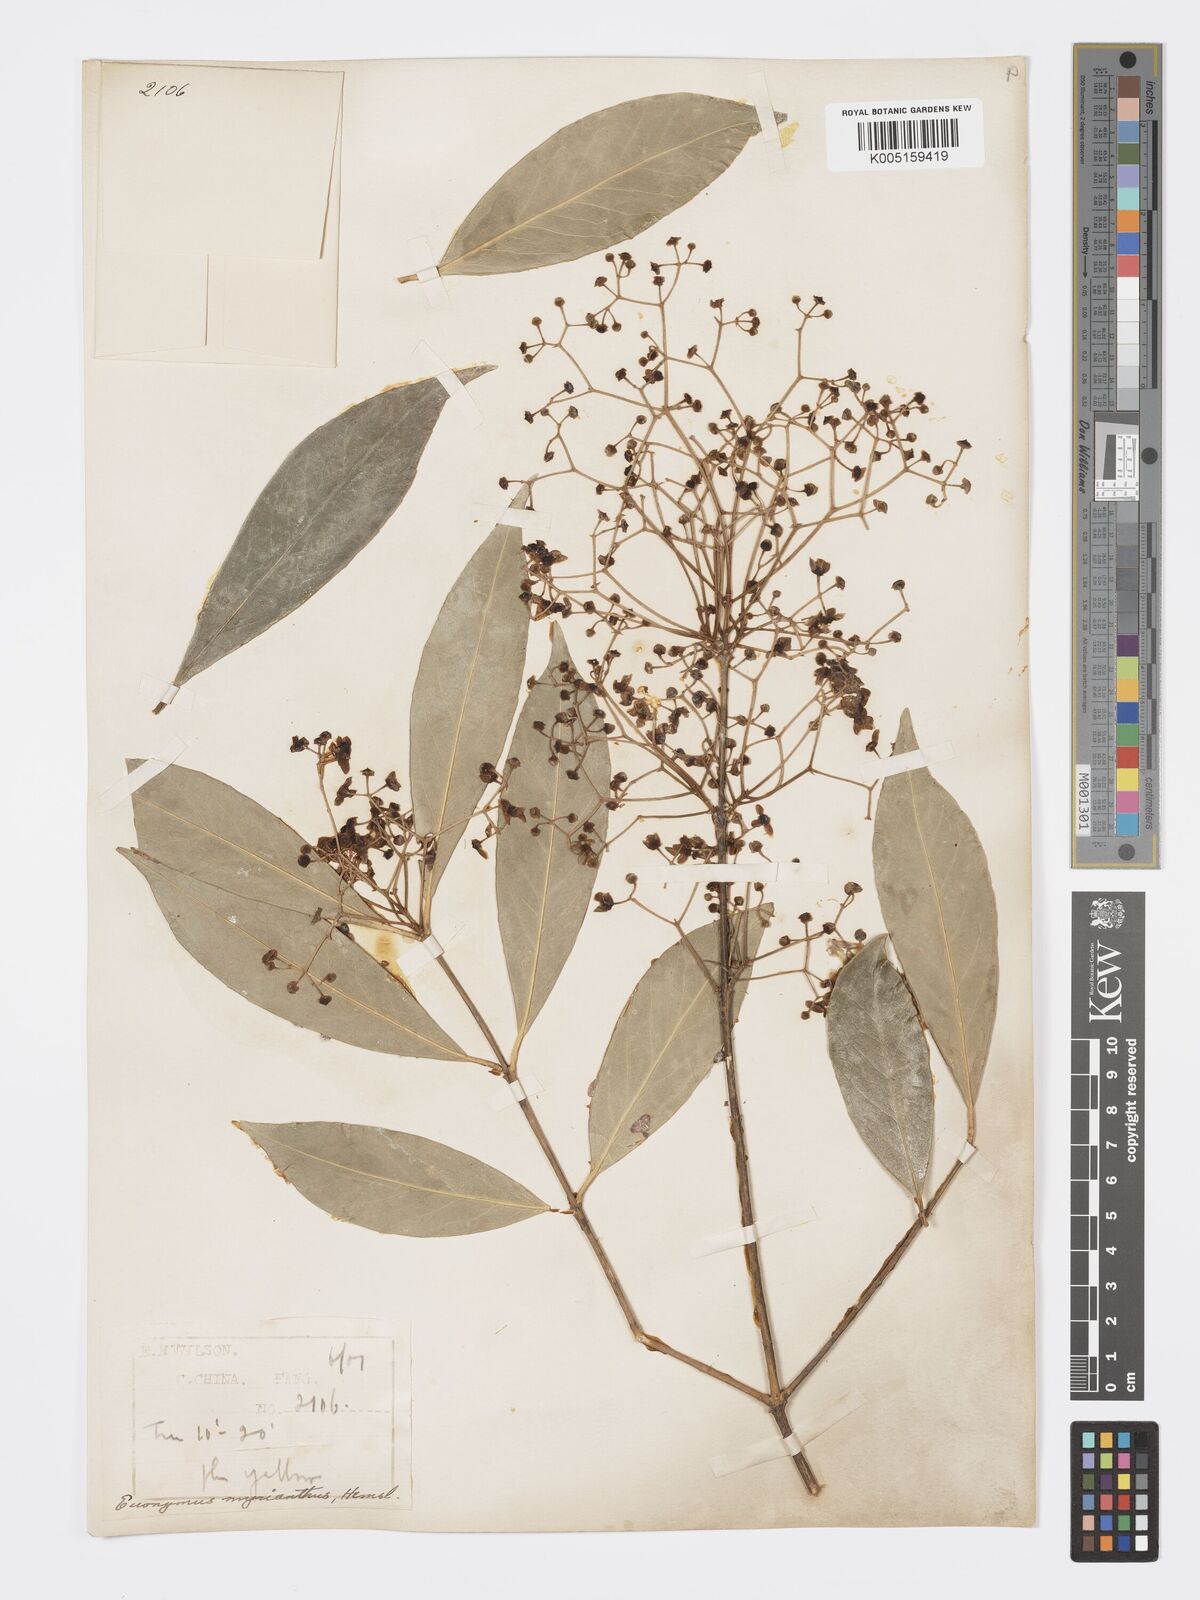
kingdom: Plantae
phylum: Tracheophyta
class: Magnoliopsida
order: Celastrales
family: Celastraceae
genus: Euonymus
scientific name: Euonymus myrianthus
